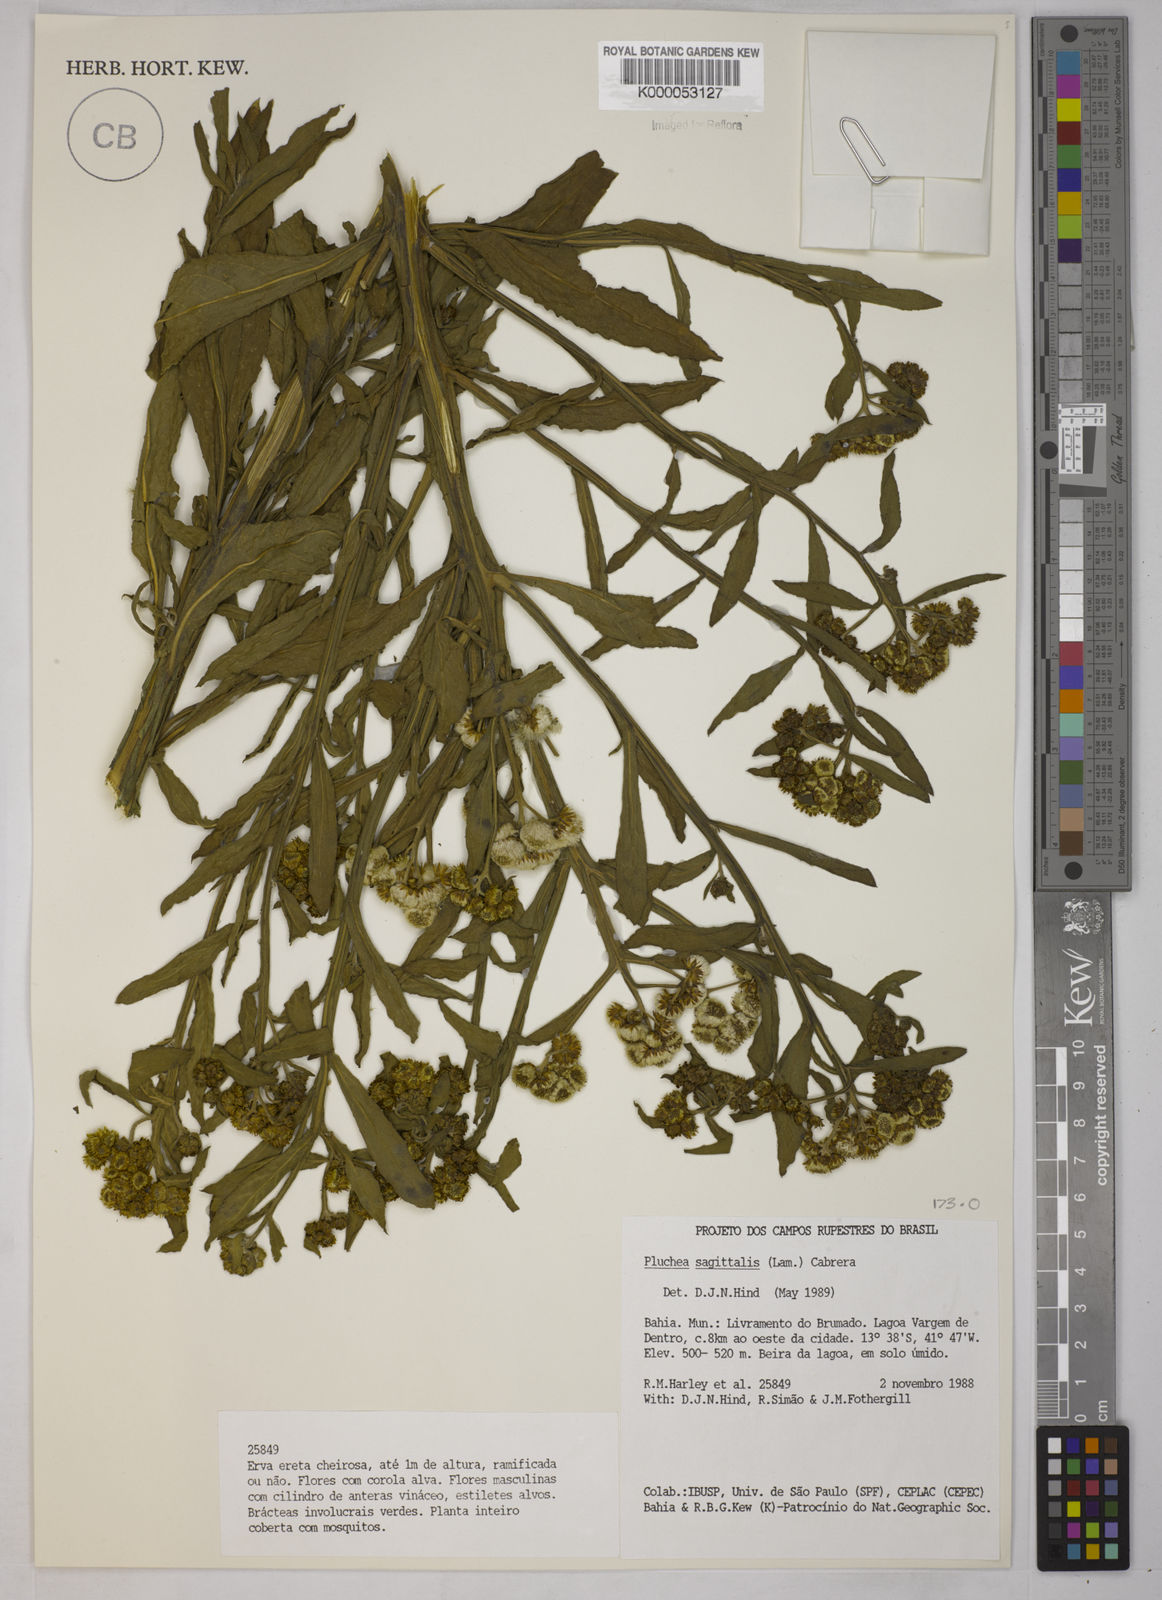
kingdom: Plantae
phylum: Tracheophyta
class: Magnoliopsida
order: Asterales
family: Asteraceae
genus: Pluchea
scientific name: Pluchea sagittalis
